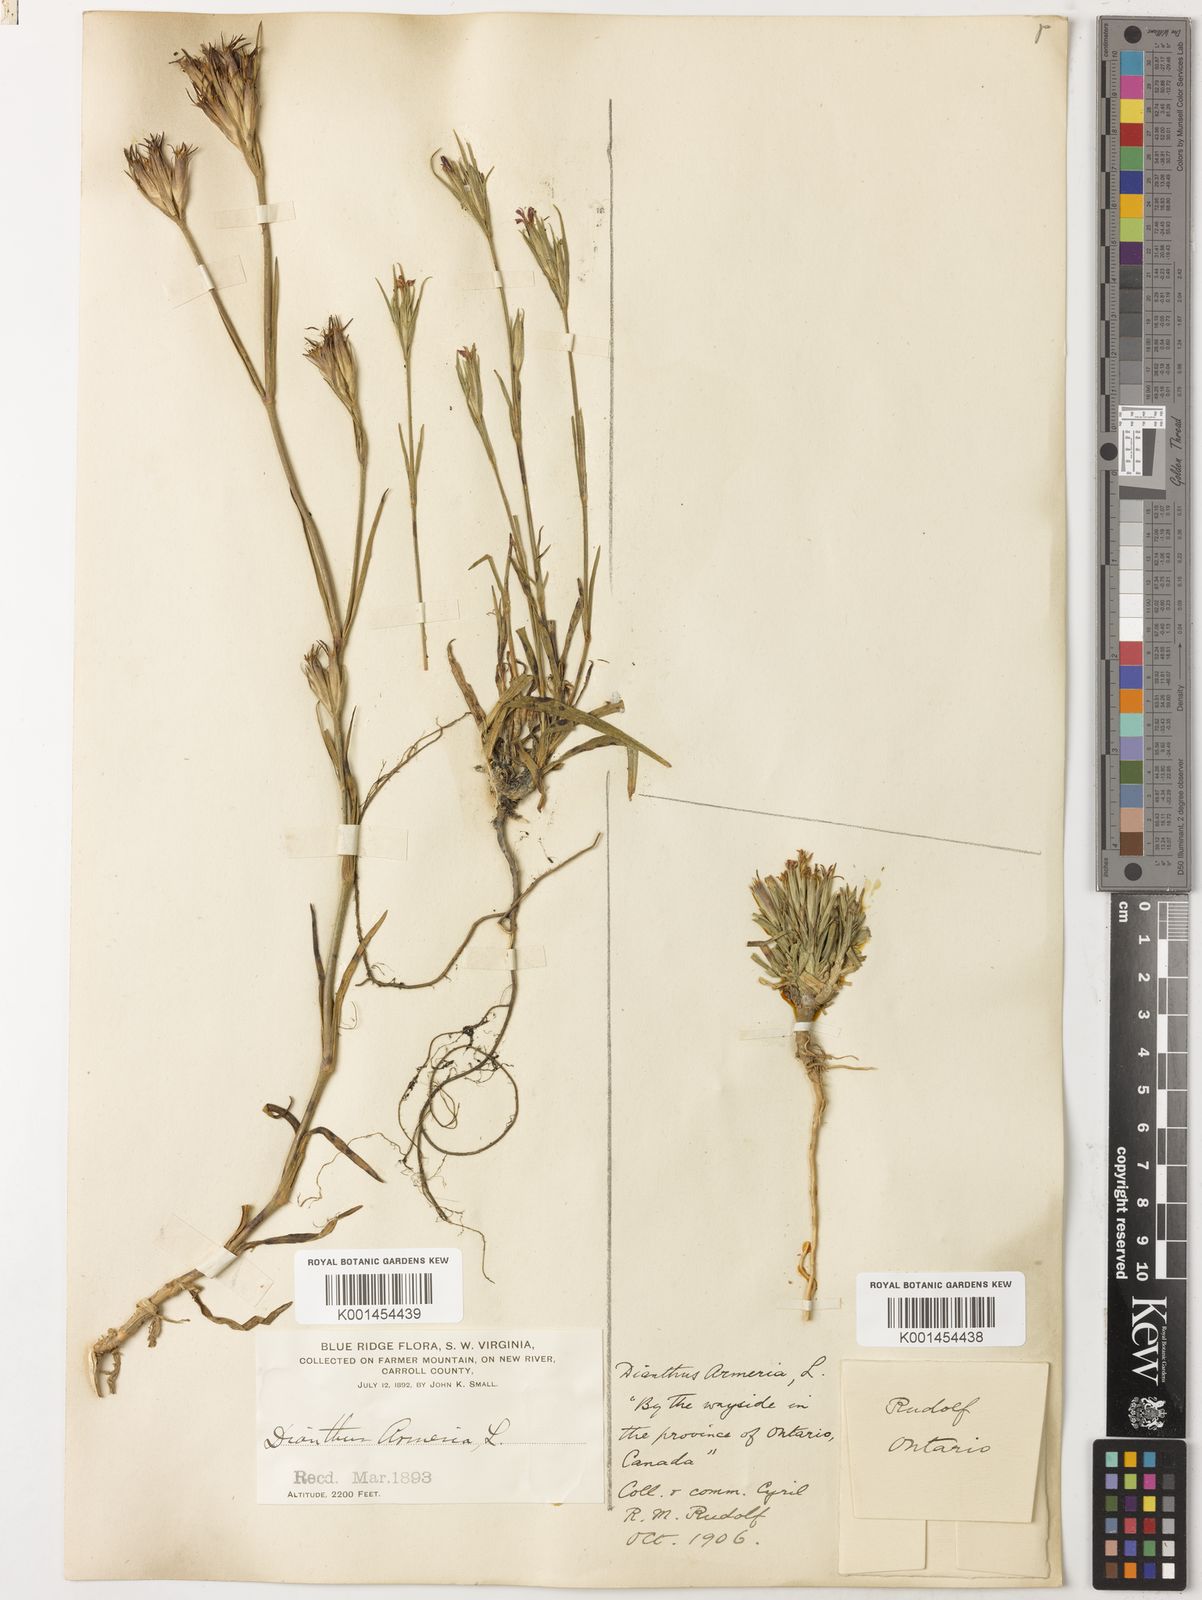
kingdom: Plantae
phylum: Tracheophyta
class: Magnoliopsida
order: Caryophyllales
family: Caryophyllaceae
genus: Dianthus
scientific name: Dianthus armeria
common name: Deptford pink
